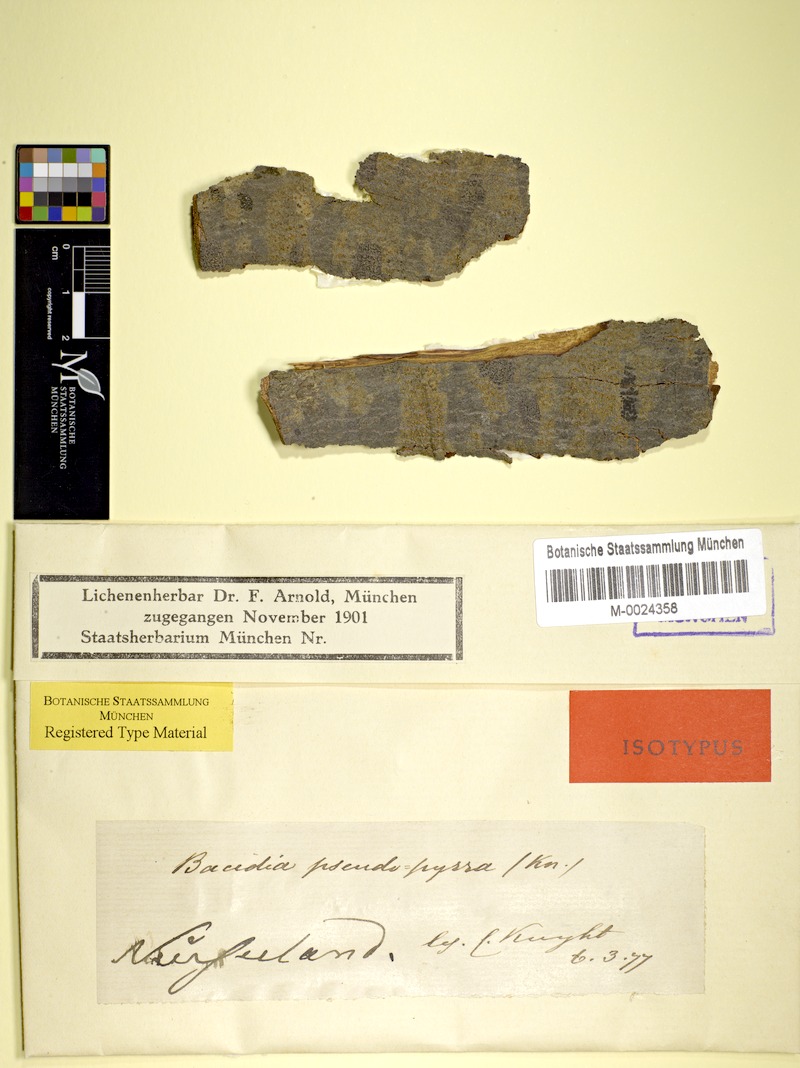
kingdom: Fungi
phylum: Ascomycota
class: Lecanoromycetes
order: Lecanorales
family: Ramalinaceae
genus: Bacidia
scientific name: Bacidia superula
